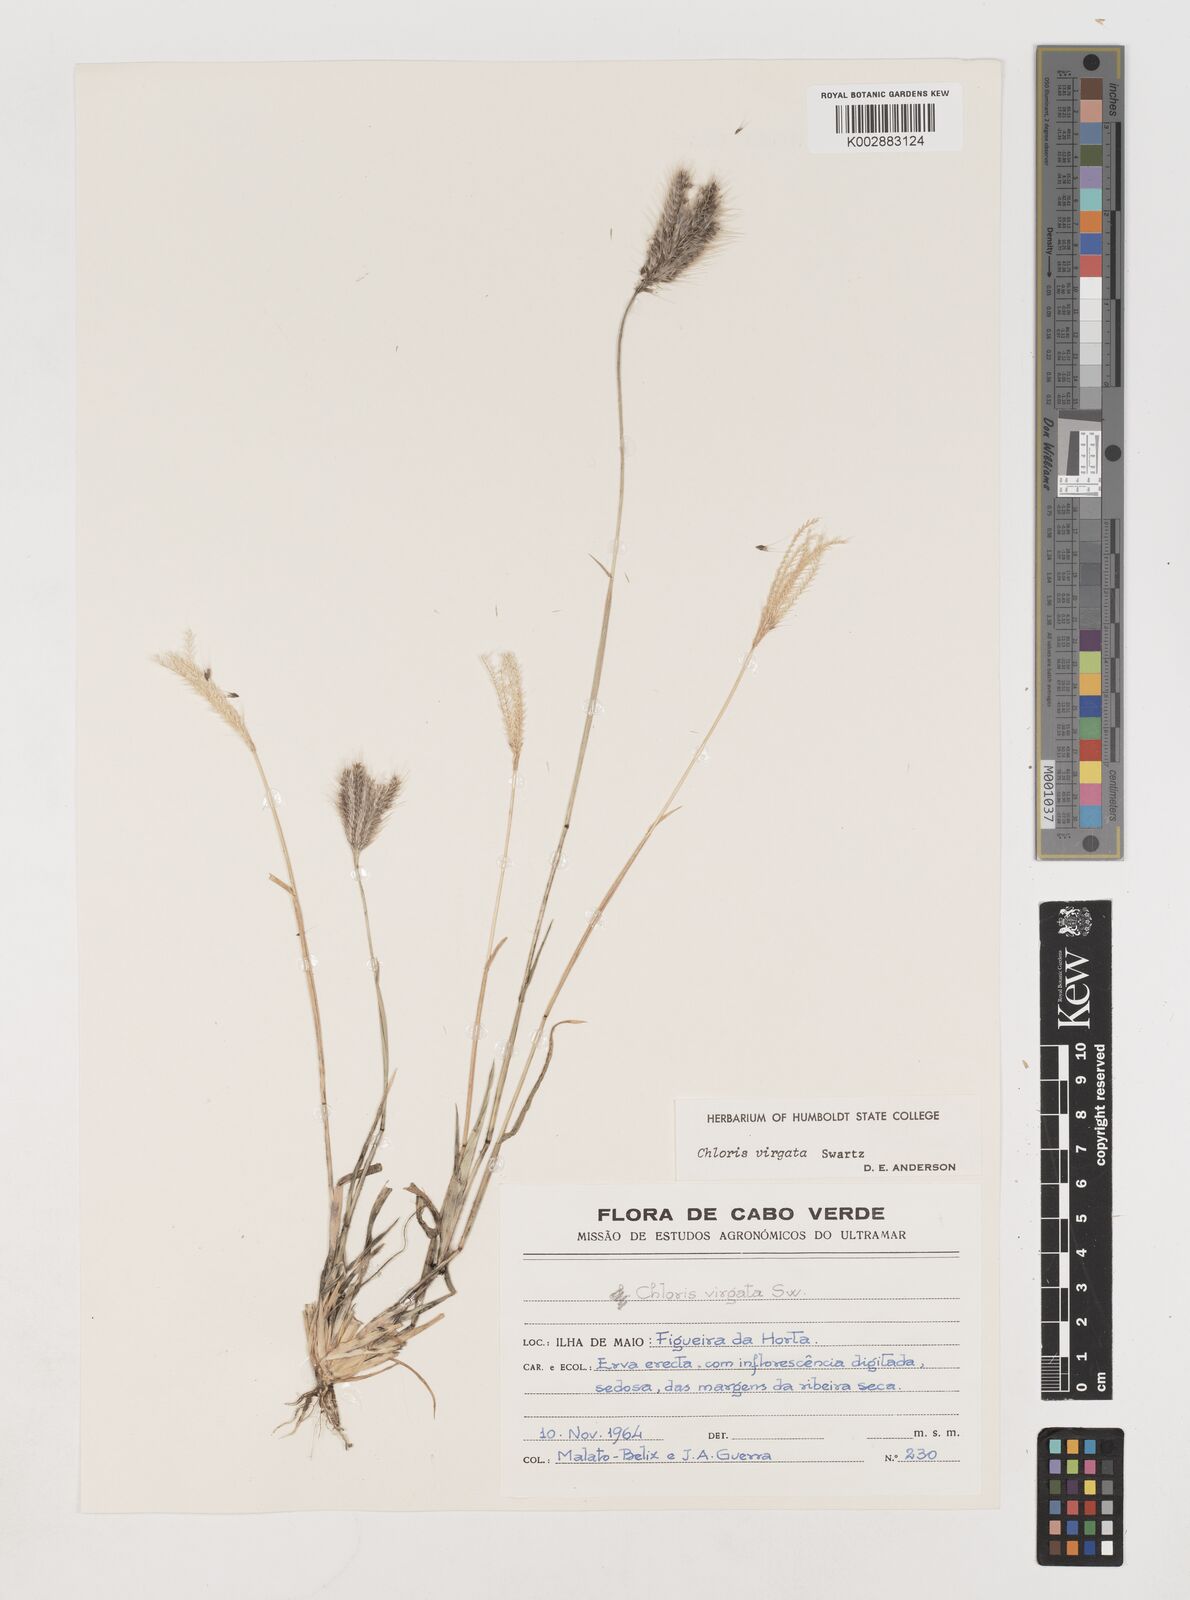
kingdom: Plantae
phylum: Tracheophyta
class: Liliopsida
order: Poales
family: Poaceae
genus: Chloris
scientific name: Chloris virgata
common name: Feathery rhodes-grass
